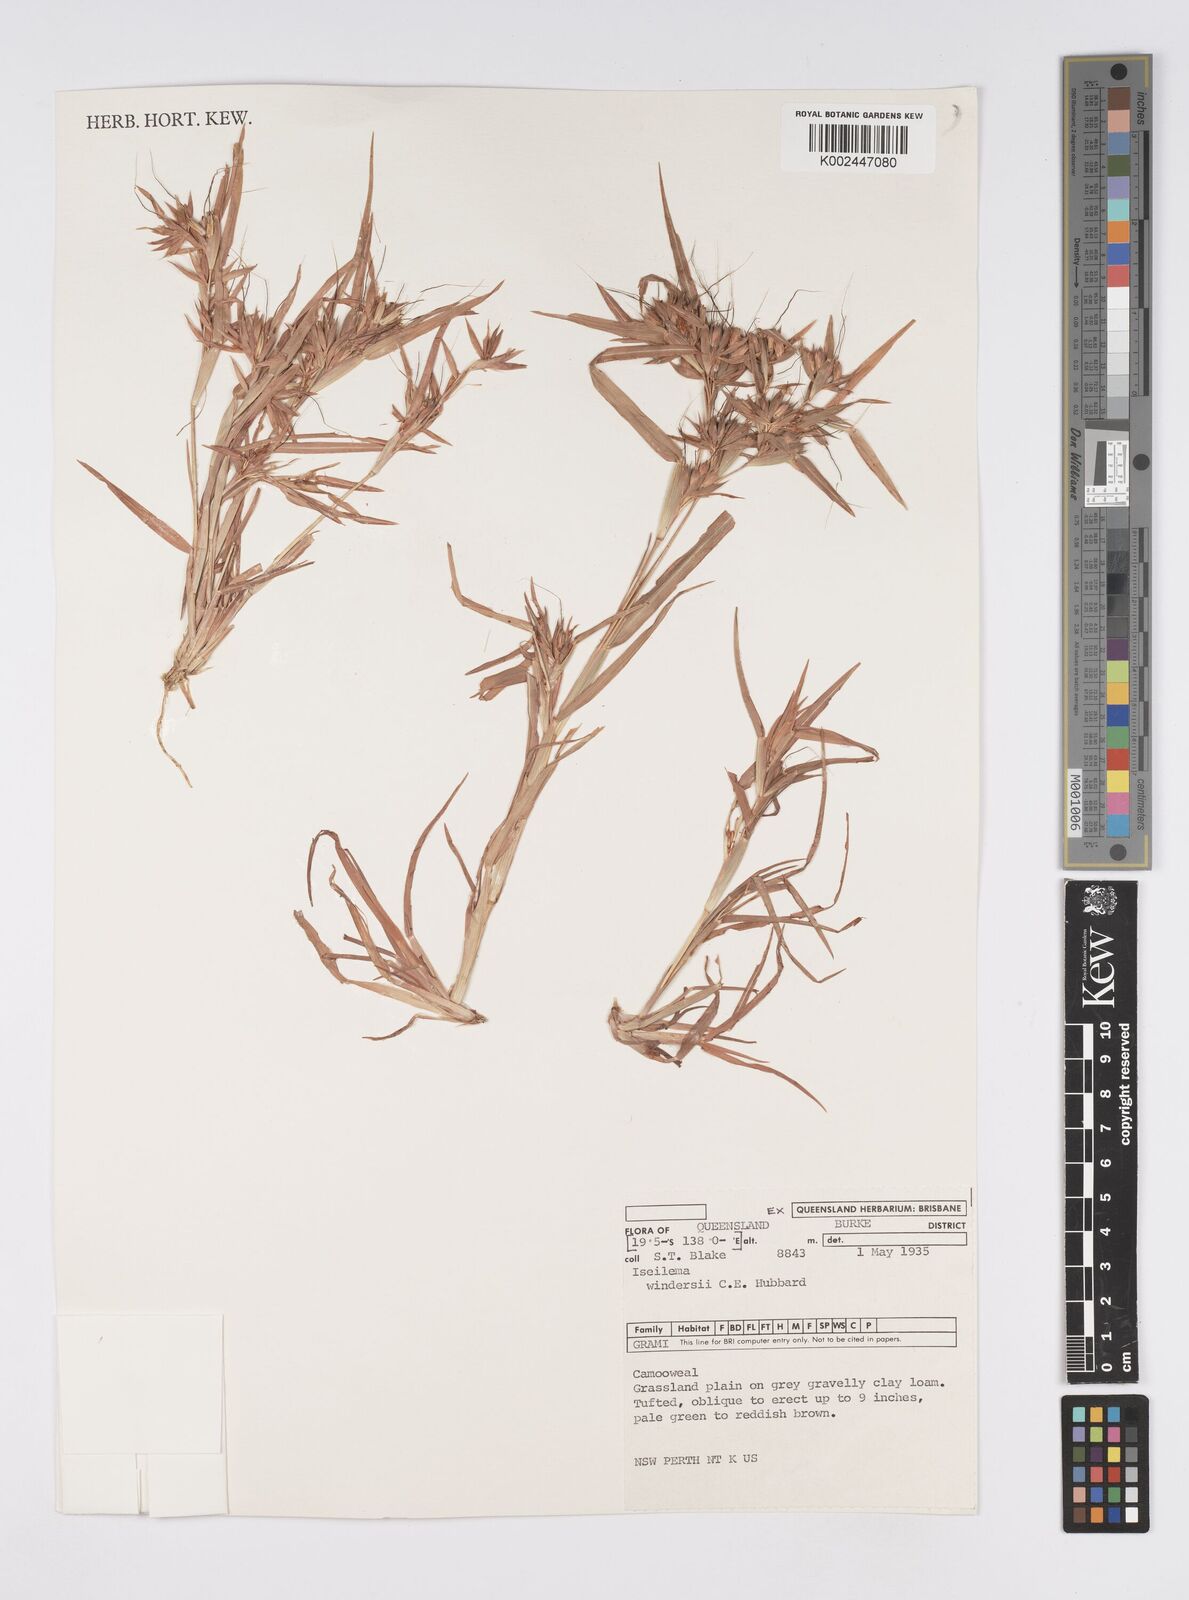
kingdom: Plantae
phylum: Tracheophyta
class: Liliopsida
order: Poales
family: Poaceae
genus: Iseilema
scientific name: Iseilema windersii
